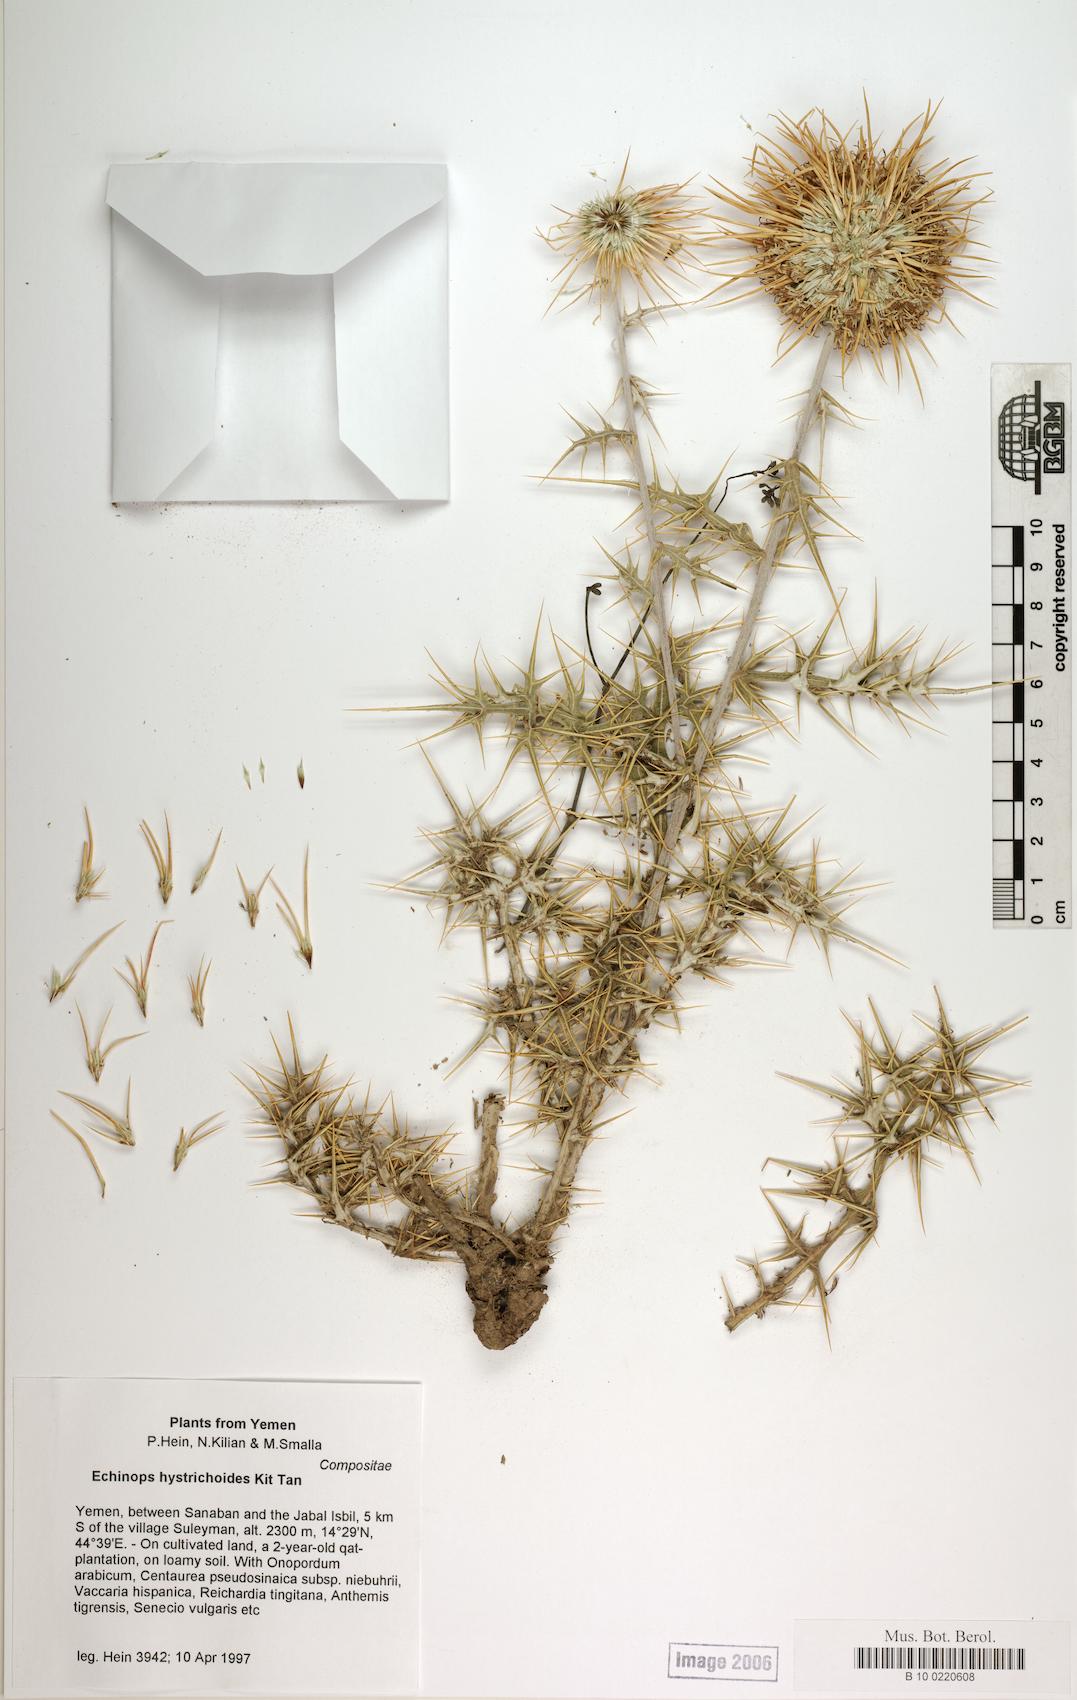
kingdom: Plantae
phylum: Tracheophyta
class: Magnoliopsida
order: Caryophyllales
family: Caryophyllaceae
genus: Stellaria
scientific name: Stellaria apetala
